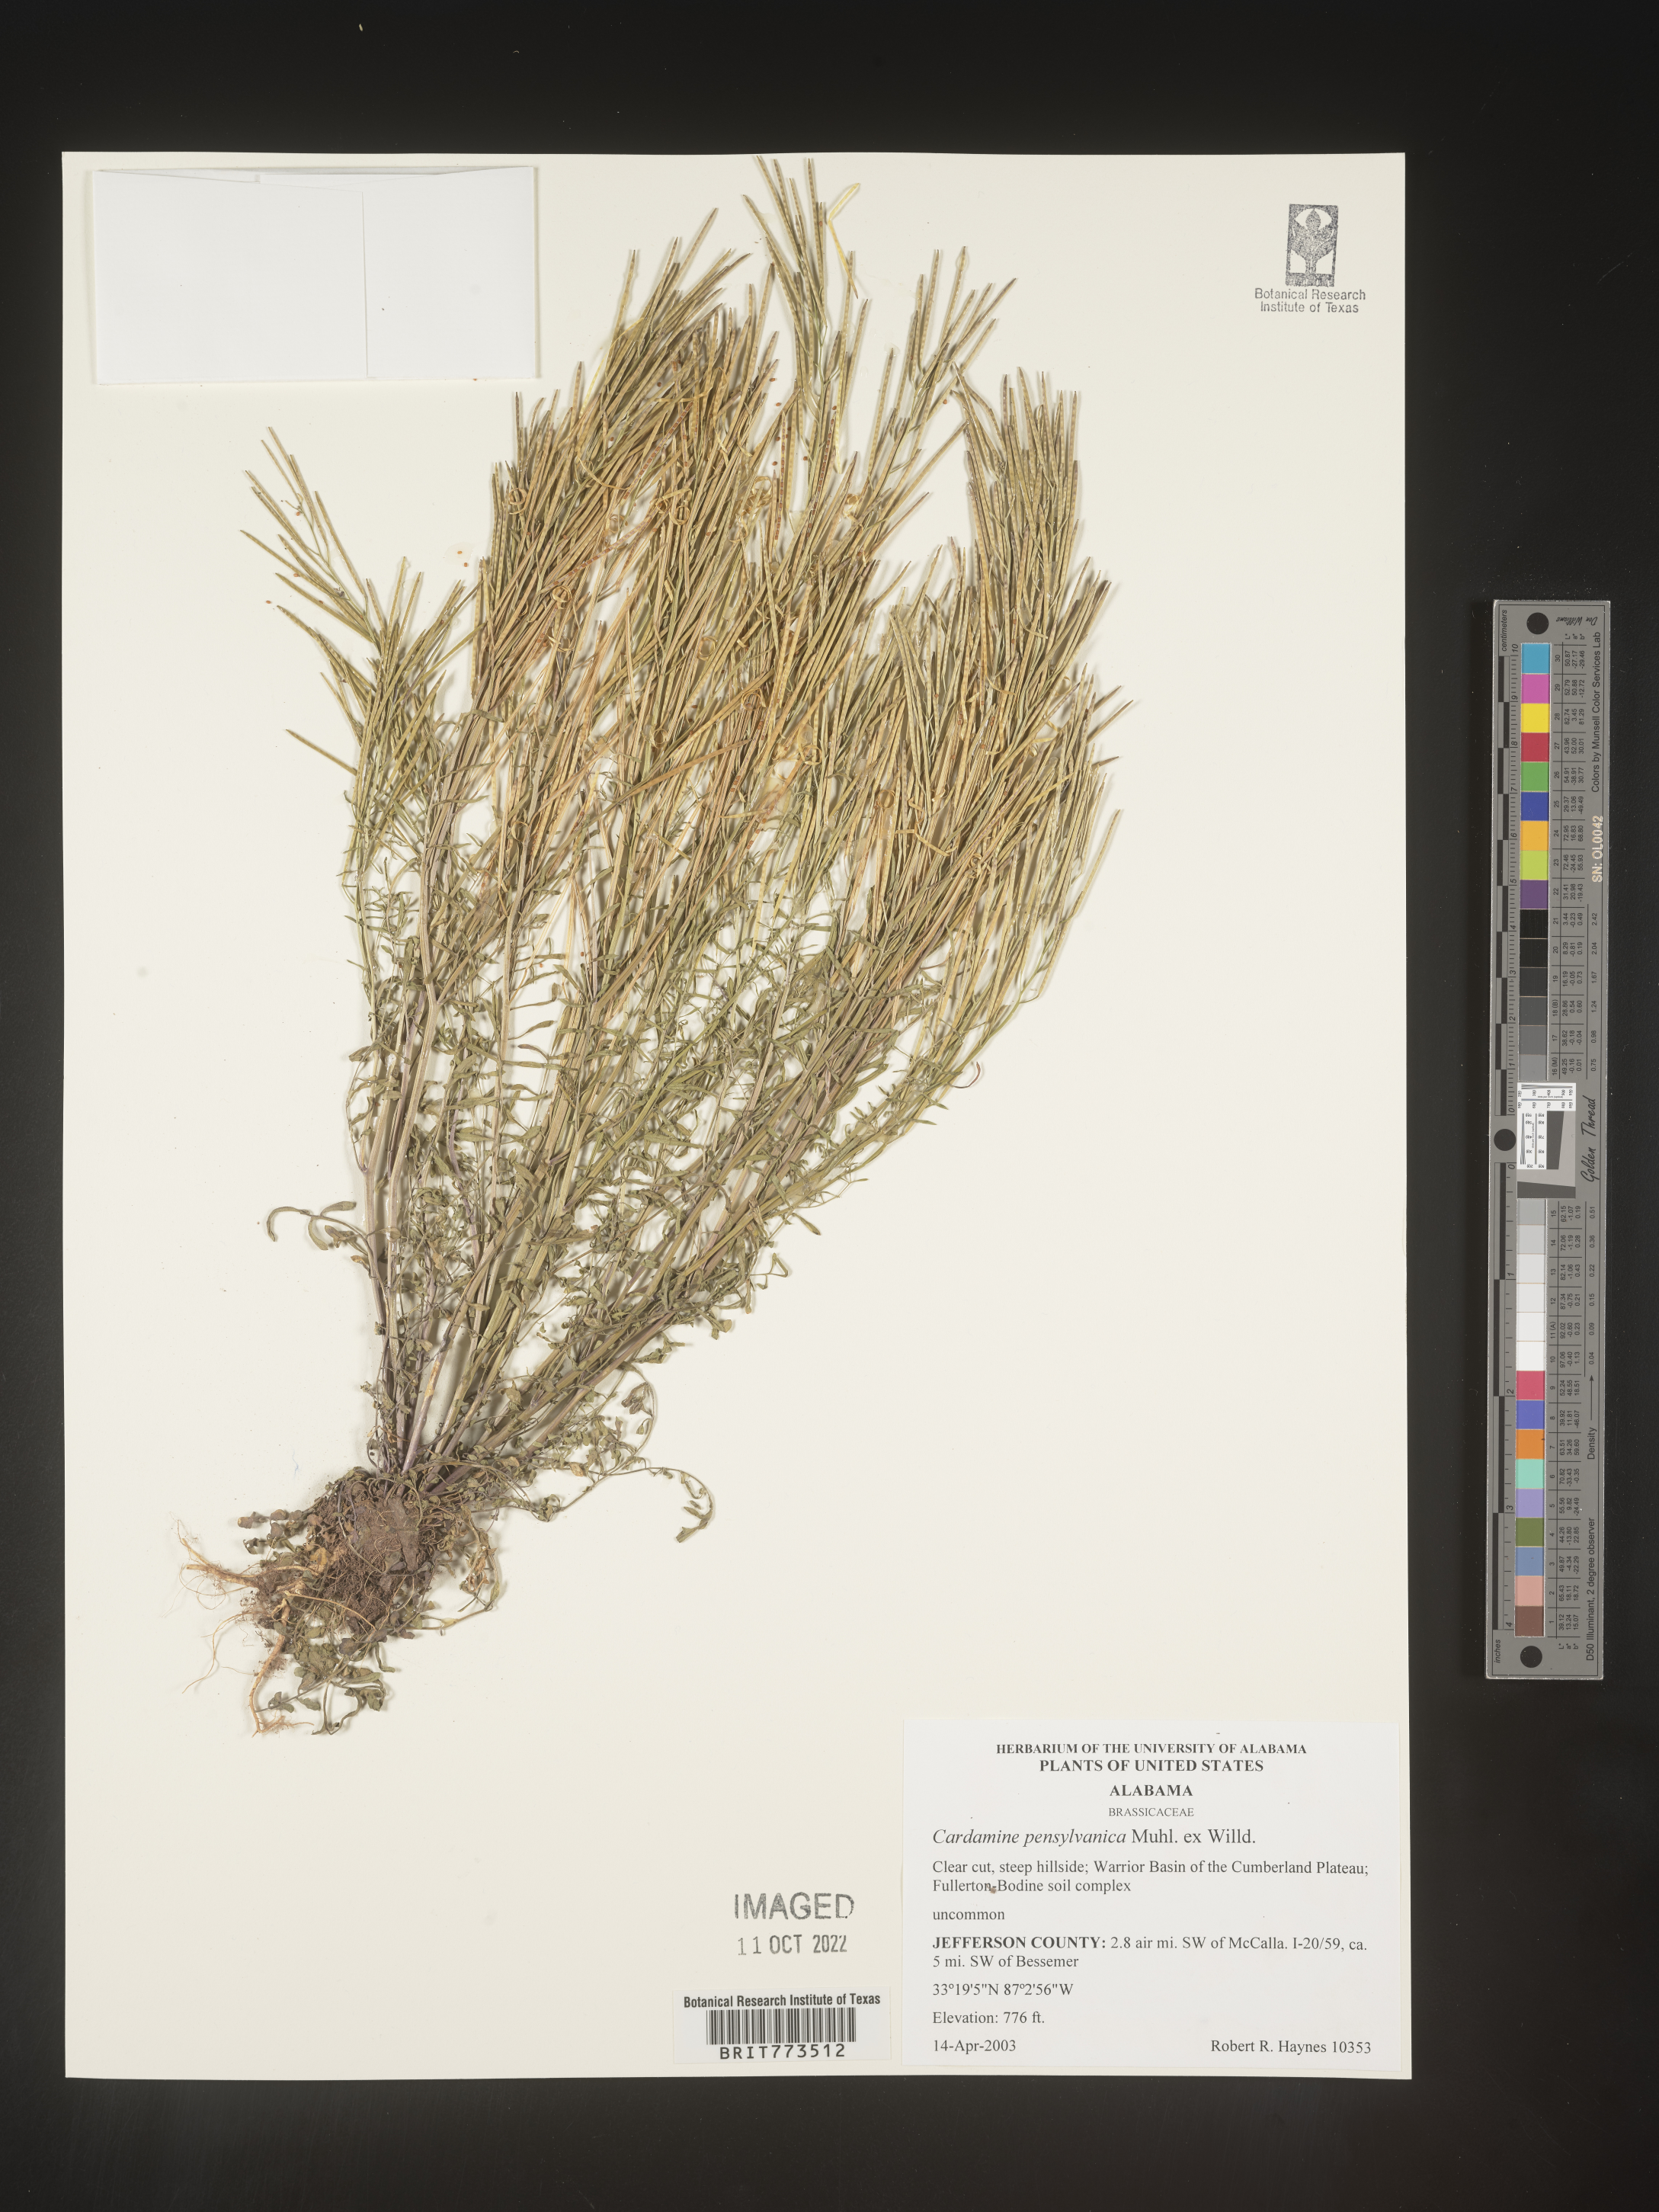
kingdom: Plantae
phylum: Tracheophyta
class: Magnoliopsida
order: Brassicales
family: Brassicaceae
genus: Cardamine
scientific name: Cardamine pensylvanica
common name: Pennsylvania bittercress
